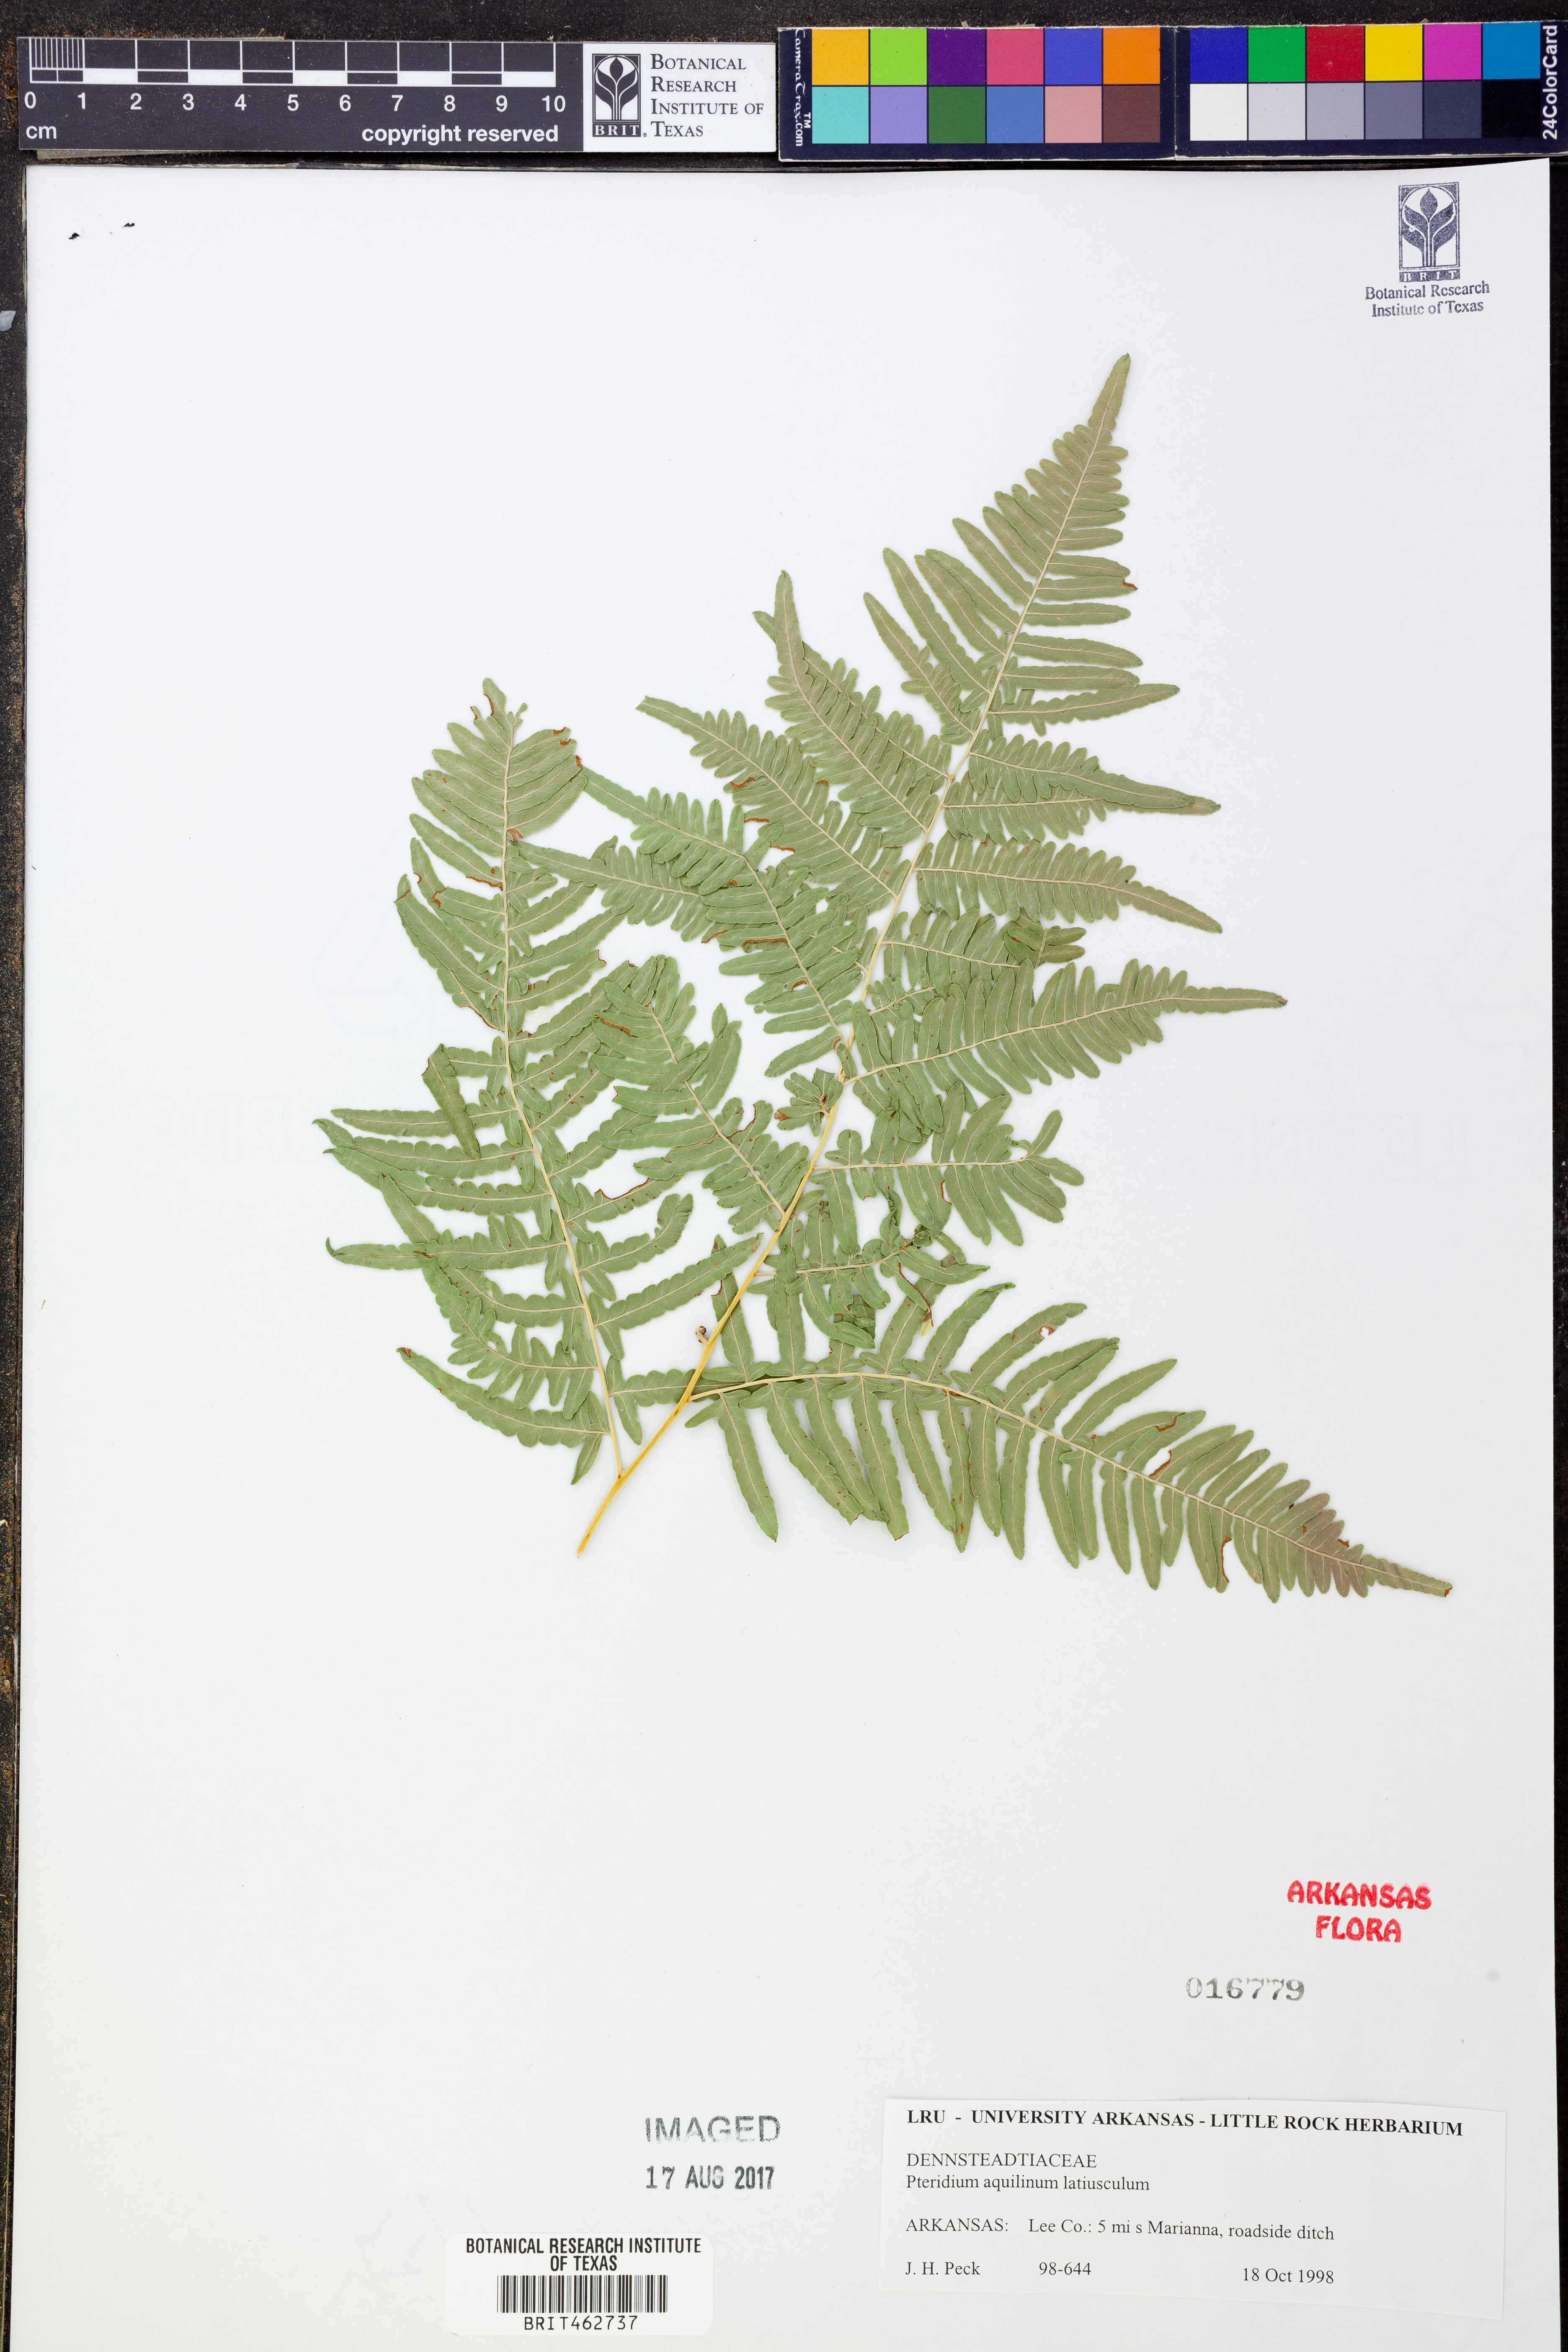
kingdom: Plantae
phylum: Tracheophyta
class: Polypodiopsida
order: Polypodiales
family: Dennstaedtiaceae
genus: Pteridium
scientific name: Pteridium aquilinum
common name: Bracken
